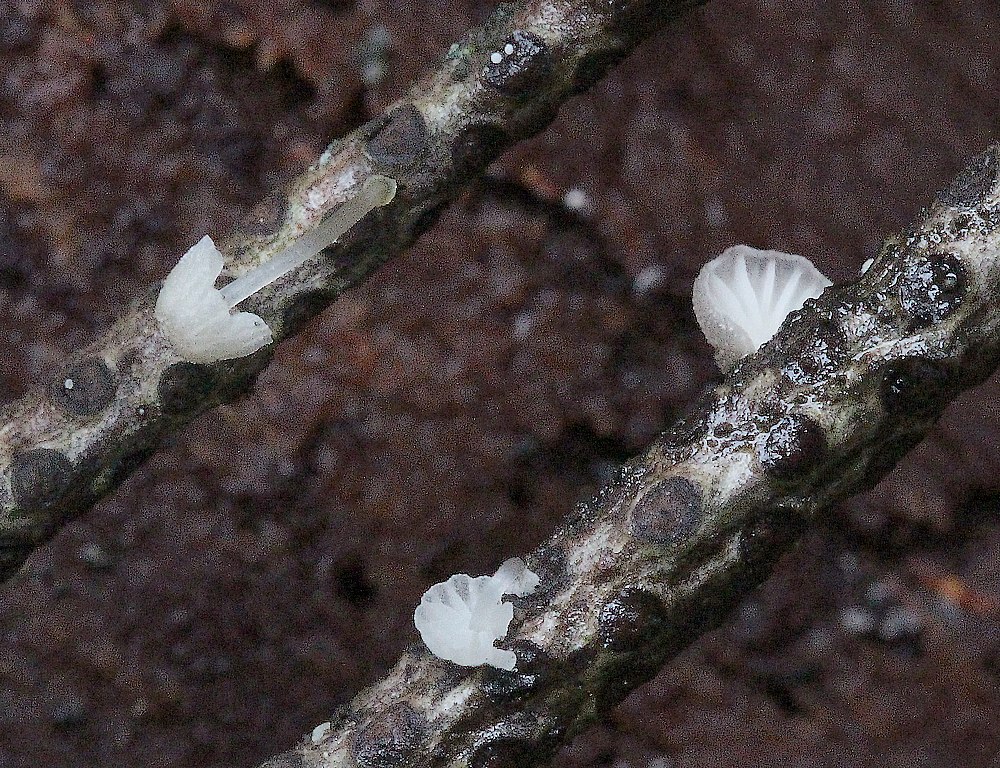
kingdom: Fungi
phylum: Basidiomycota
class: Agaricomycetes
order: Agaricales
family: Mycenaceae
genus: Mycena
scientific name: Mycena tenerrima
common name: pudret huesvamp
